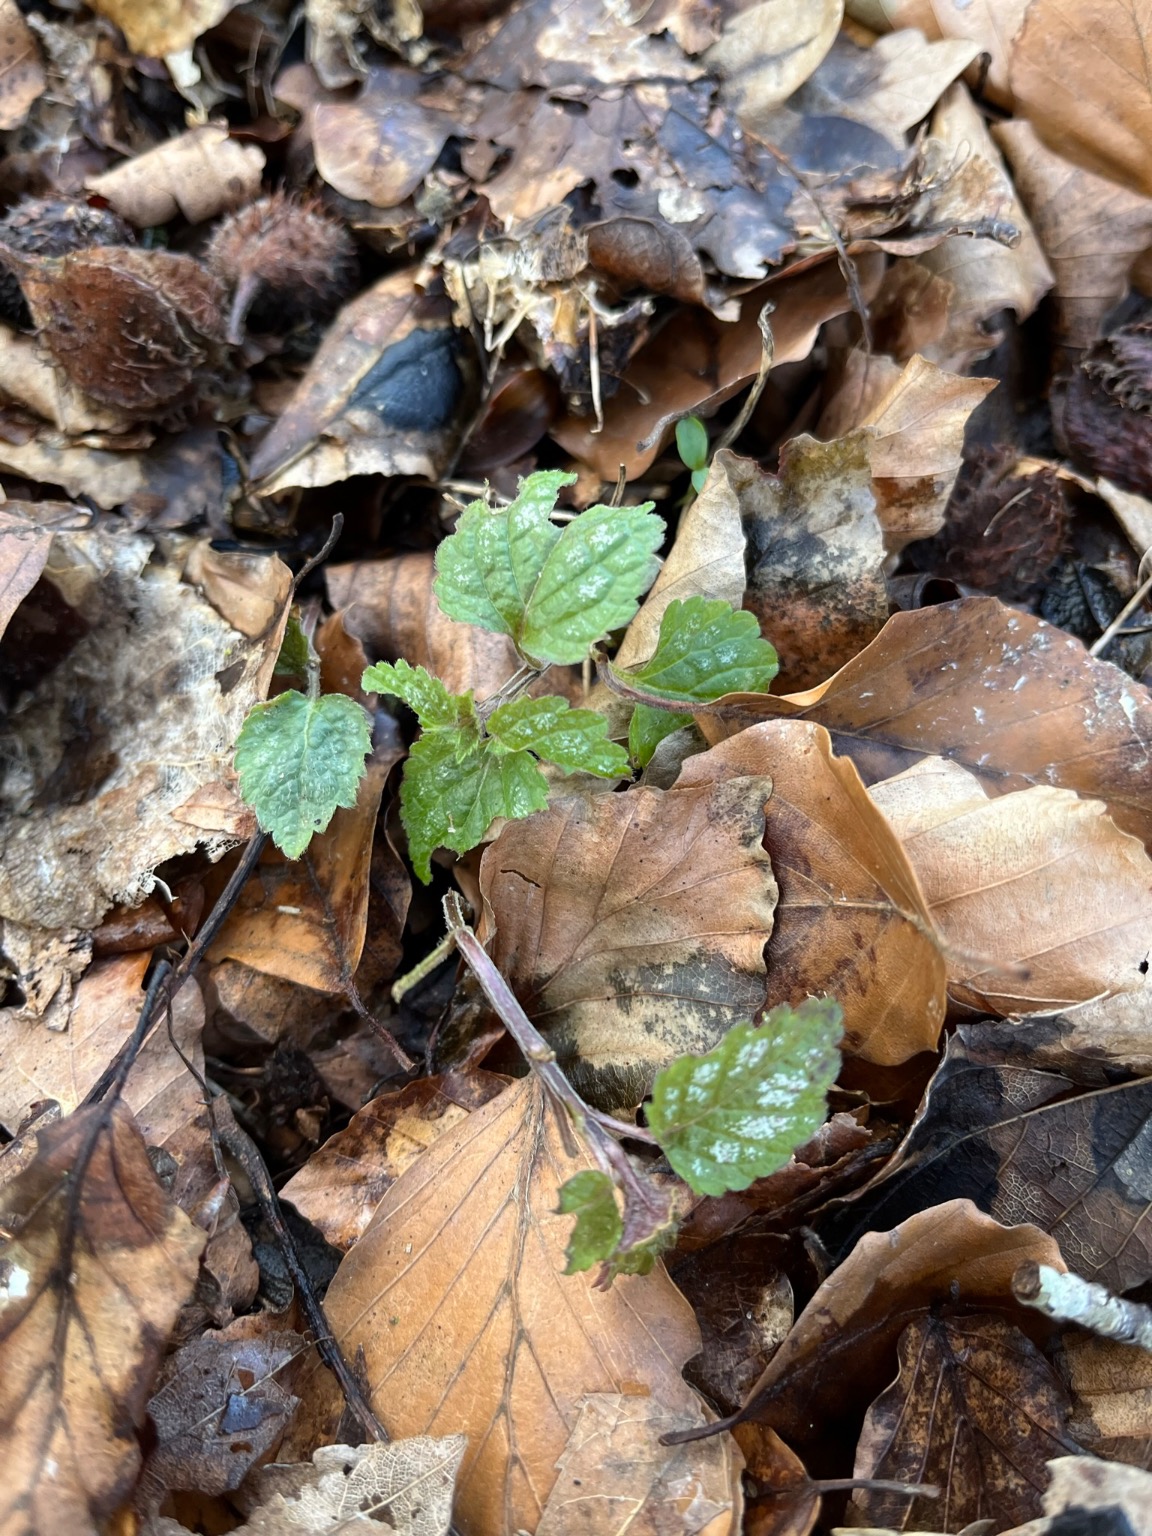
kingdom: Plantae
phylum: Tracheophyta
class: Magnoliopsida
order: Lamiales
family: Lamiaceae
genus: Lamium
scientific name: Lamium galeobdolon
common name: Almindelig guldnælde
